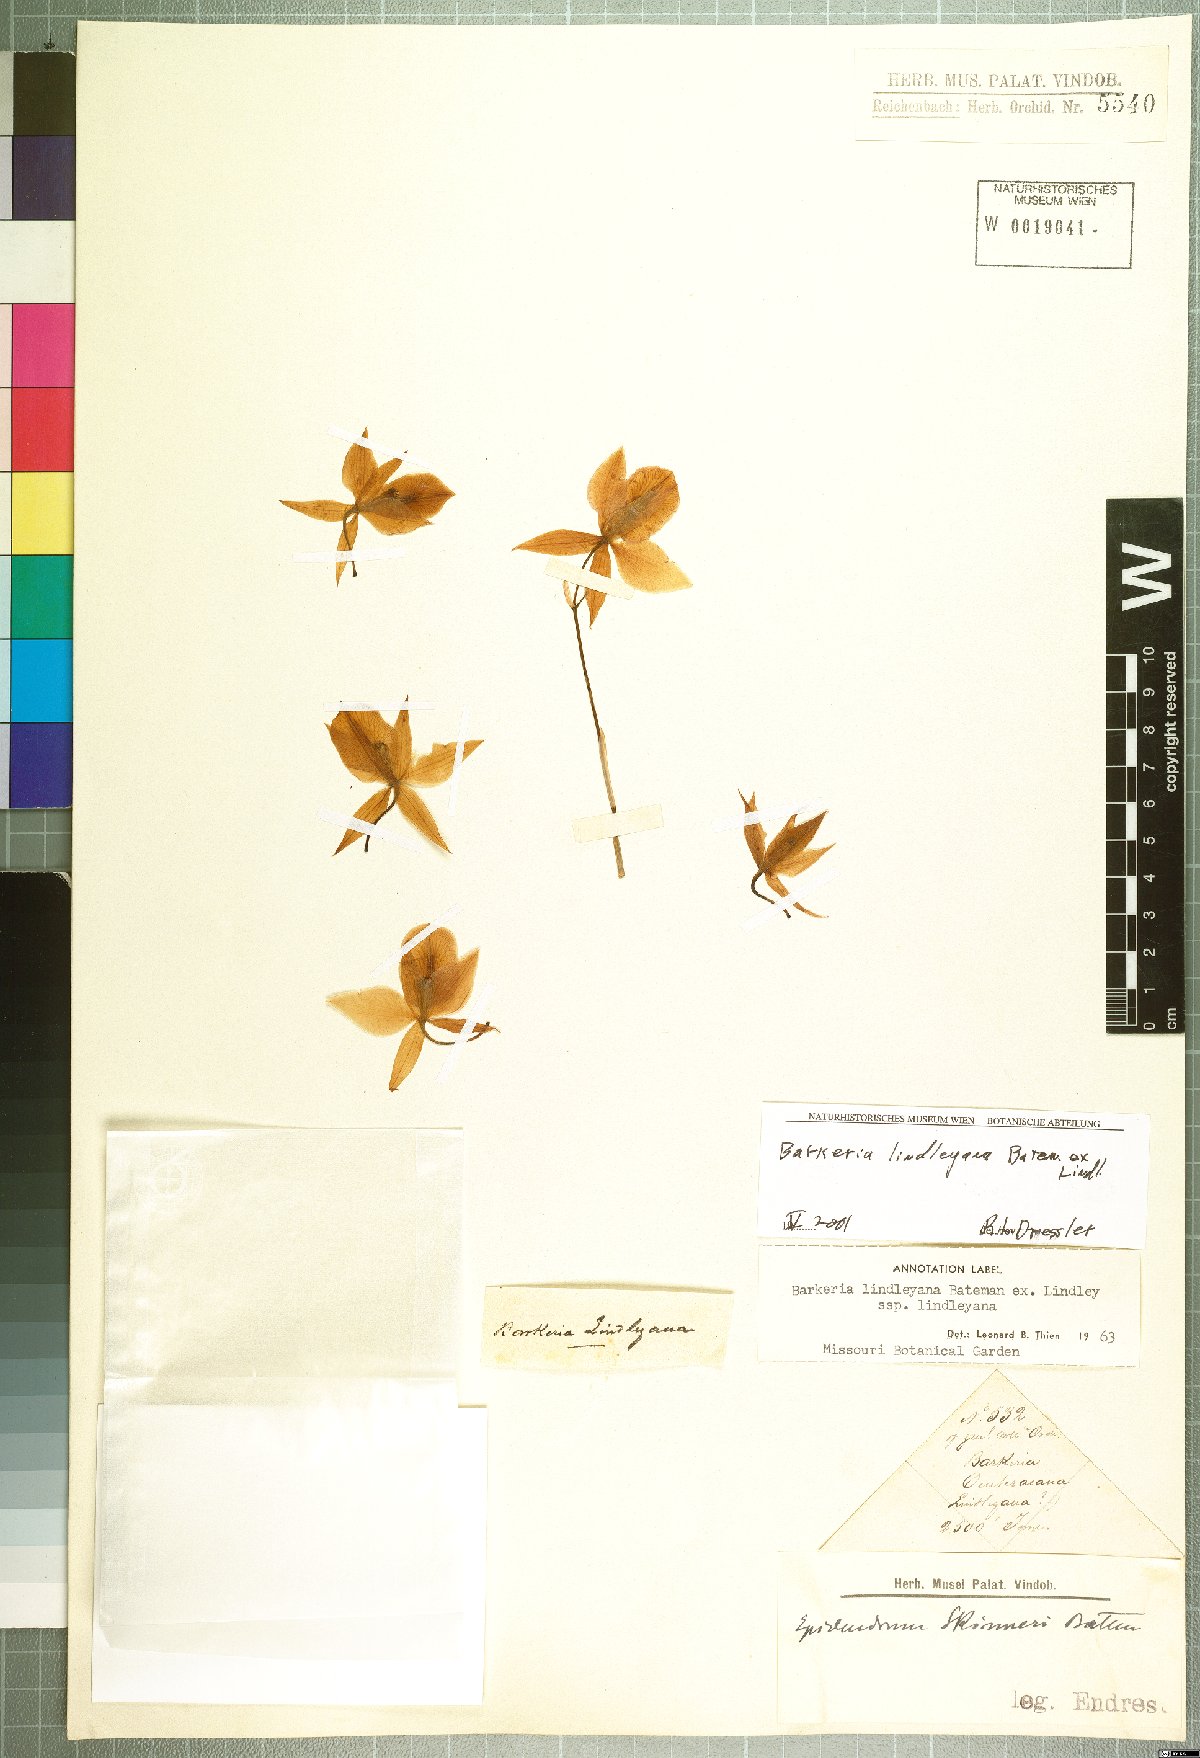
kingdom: Plantae
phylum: Tracheophyta
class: Liliopsida
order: Asparagales
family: Orchidaceae
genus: Barkeria
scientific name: Barkeria lindleyana
